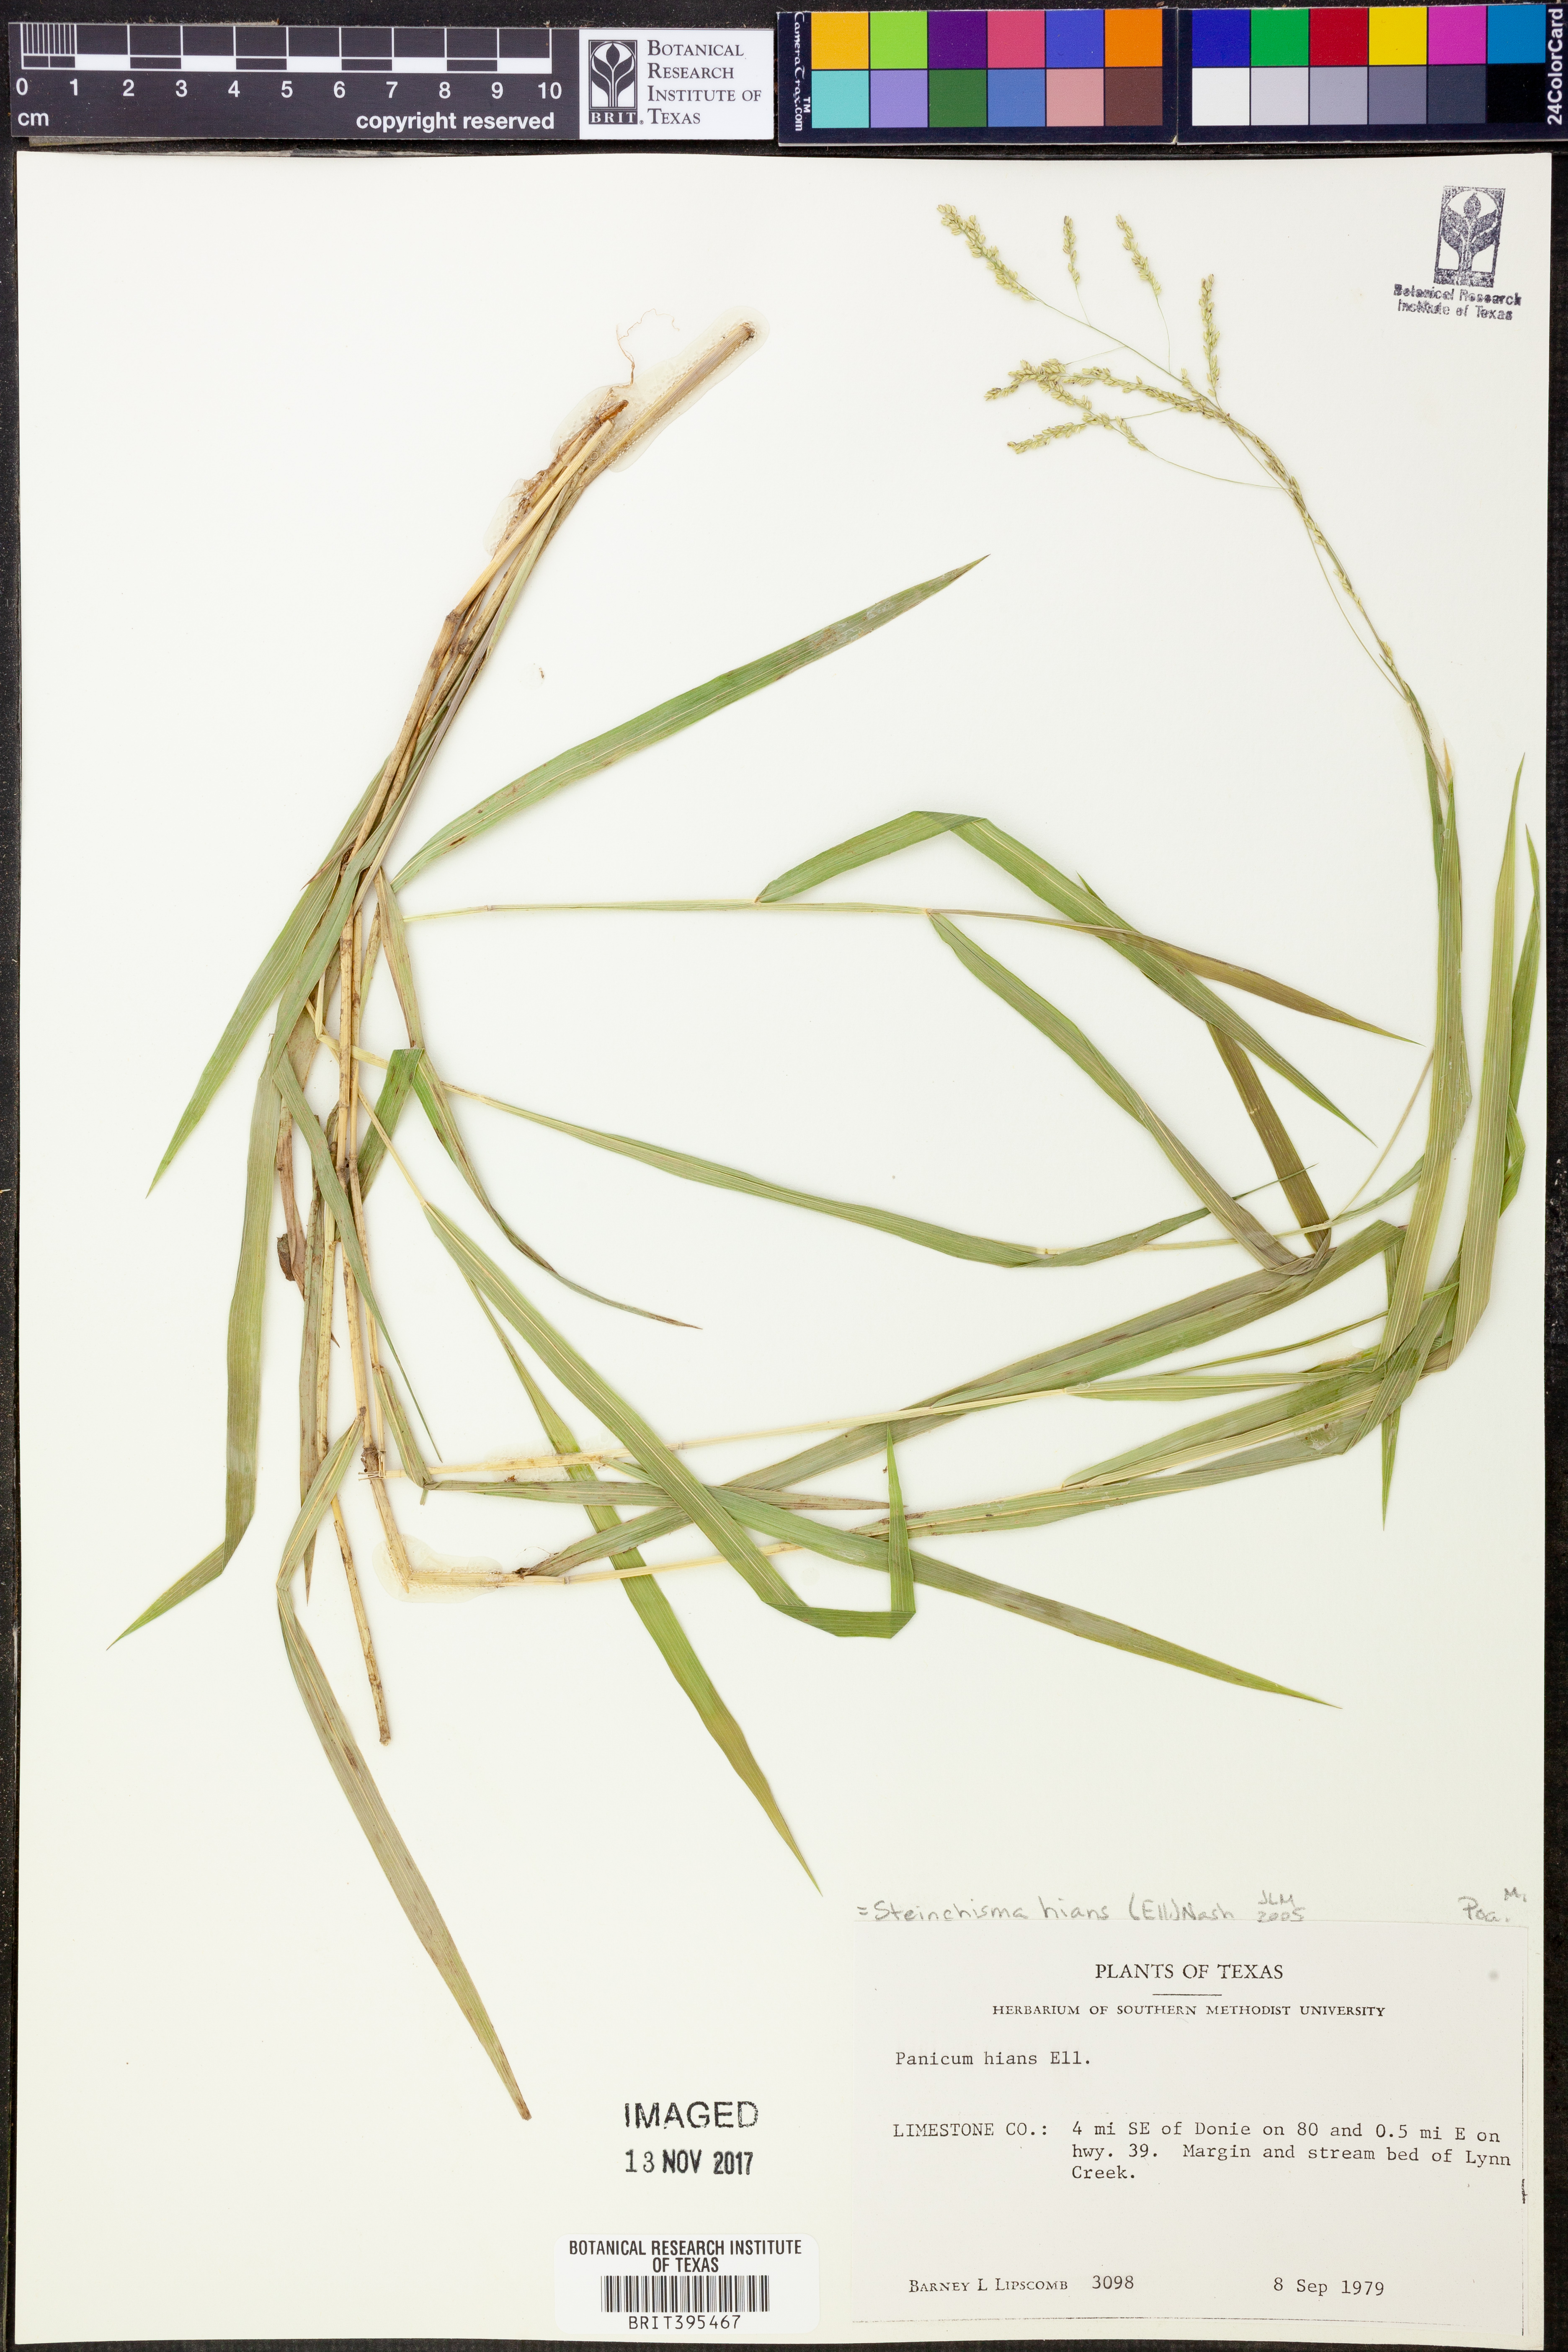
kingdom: Plantae
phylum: Tracheophyta
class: Liliopsida
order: Poales
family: Poaceae
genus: Steinchisma
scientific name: Steinchisma hians
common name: Gaping panic grass
